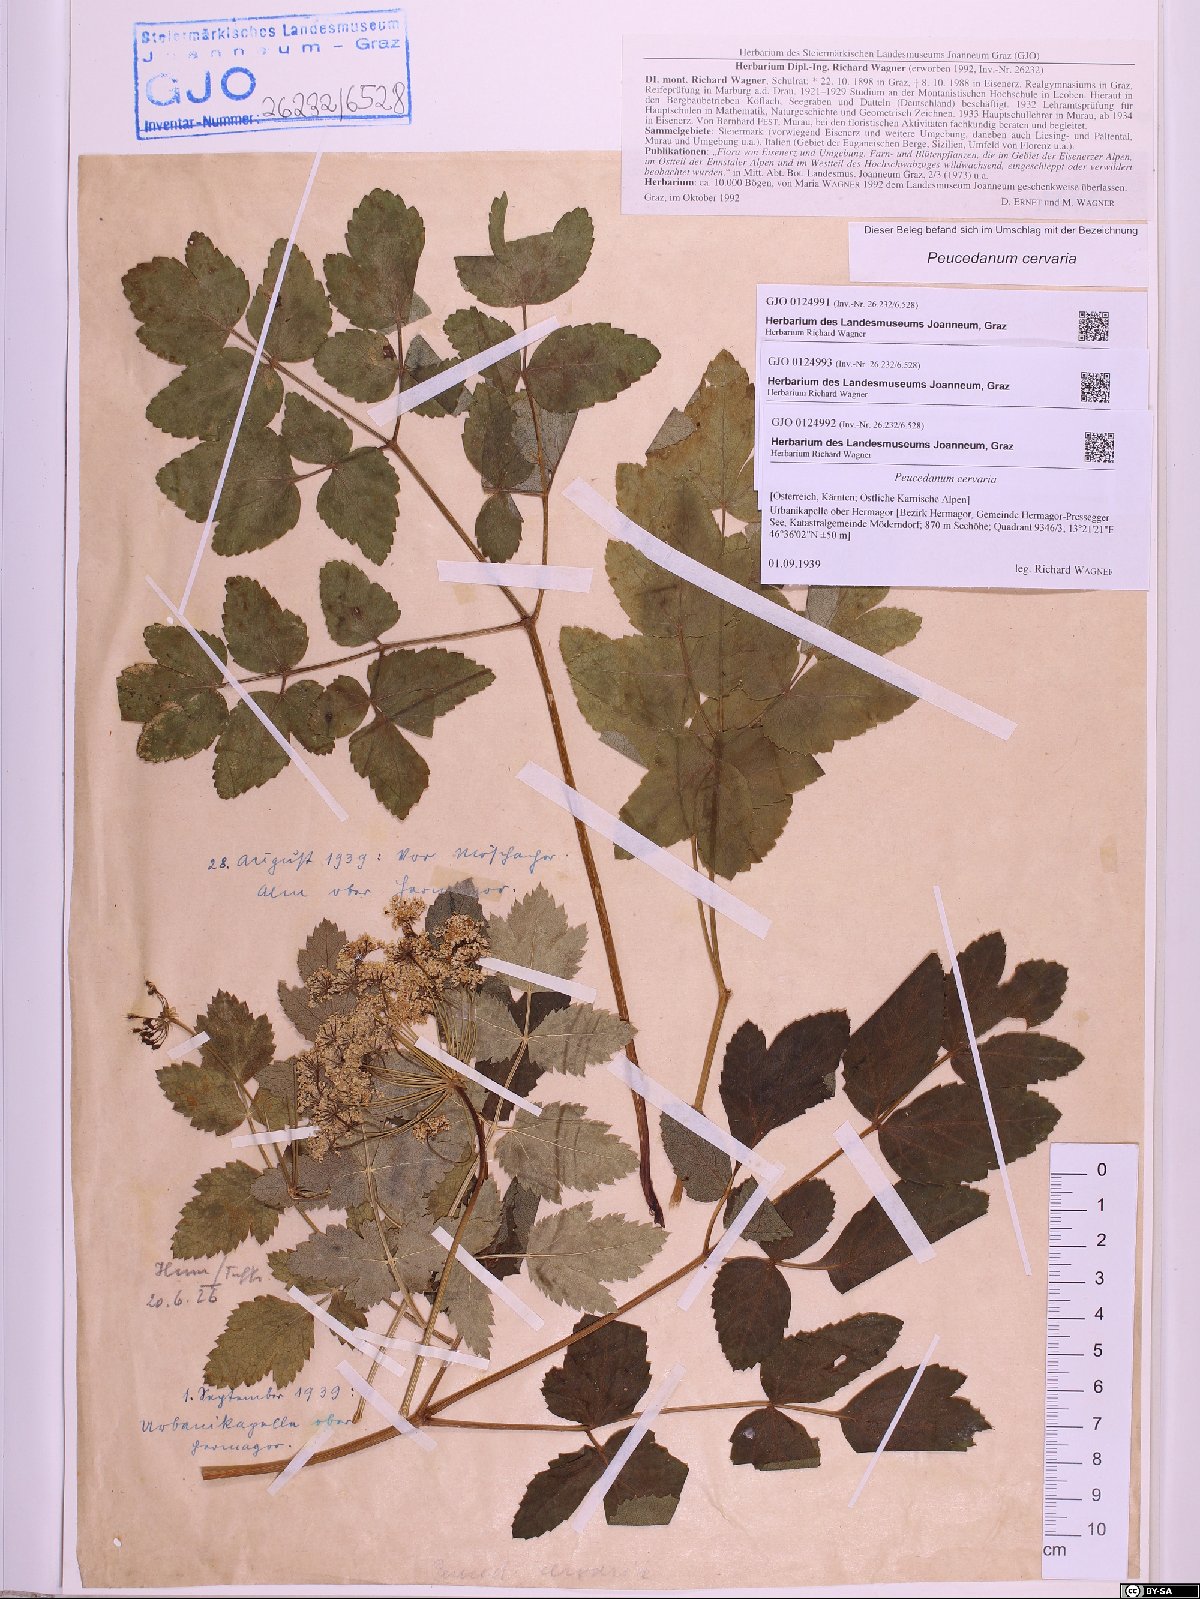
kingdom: Plantae
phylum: Tracheophyta
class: Magnoliopsida
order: Apiales
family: Apiaceae
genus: Cervaria
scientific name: Cervaria rivini
